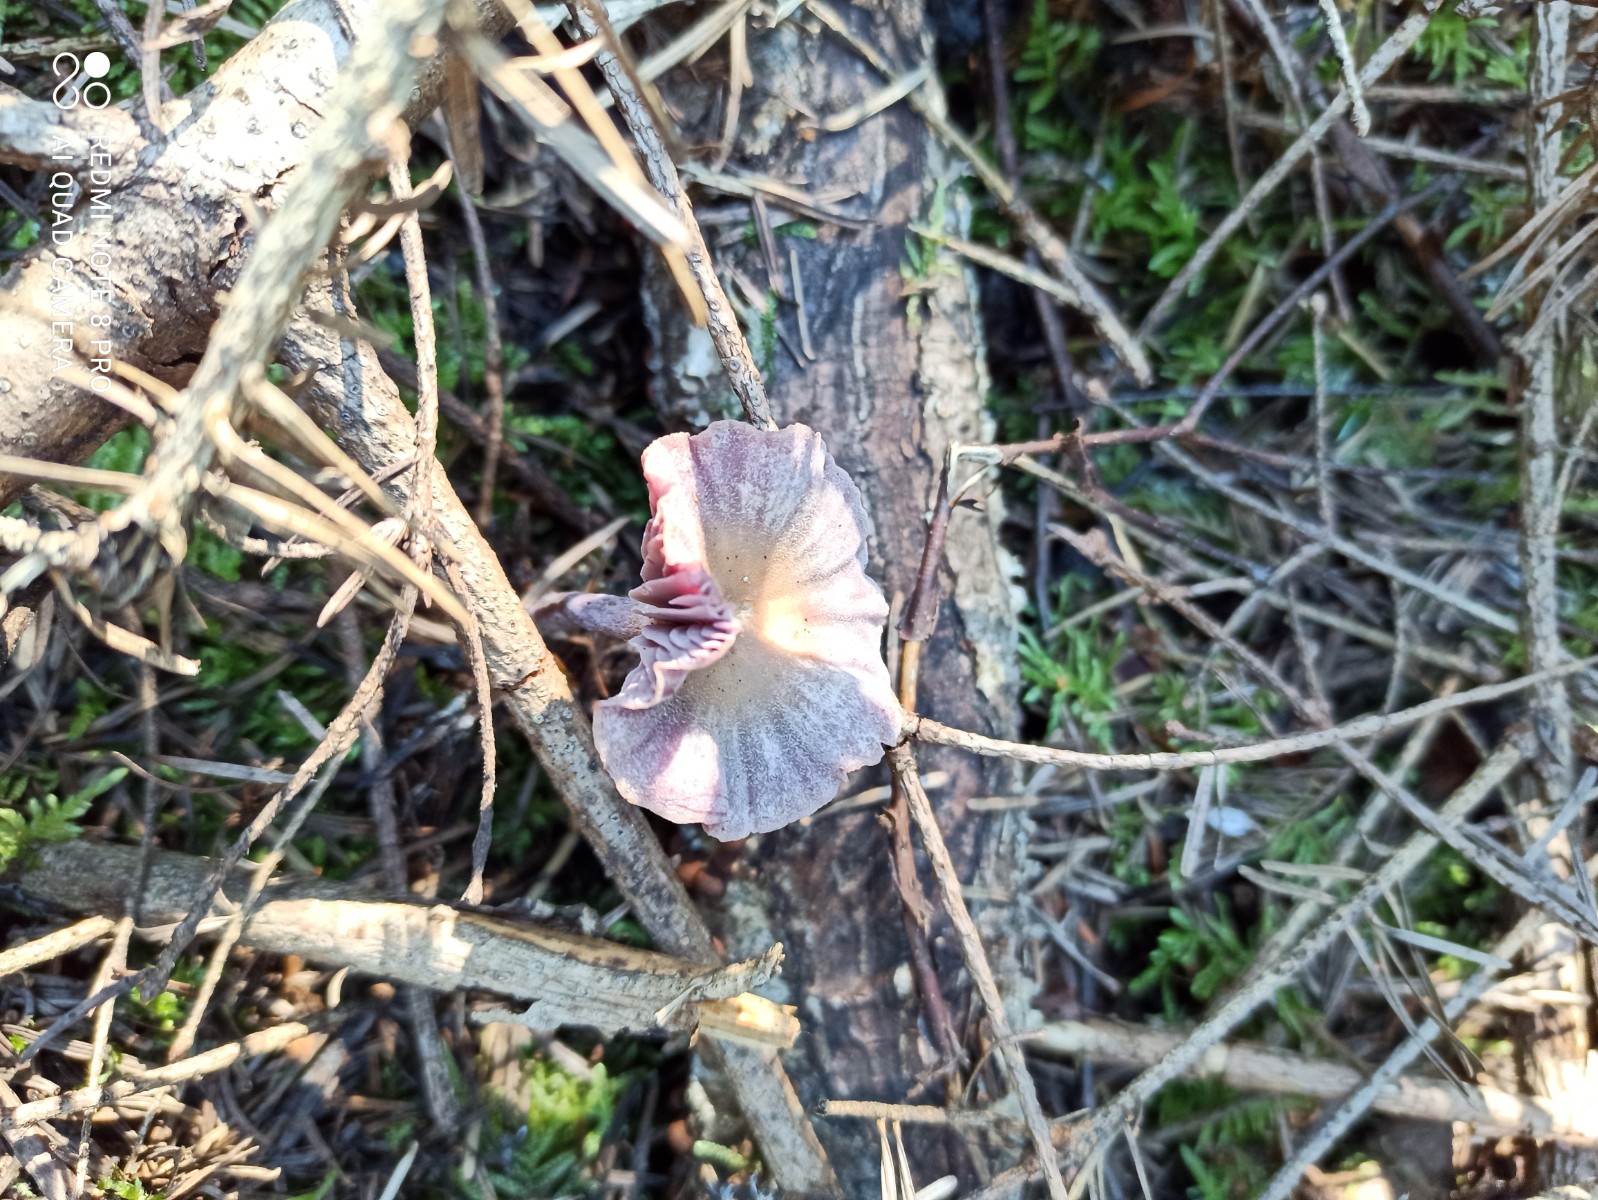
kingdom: Fungi
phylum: Basidiomycota
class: Agaricomycetes
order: Agaricales
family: Hydnangiaceae
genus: Laccaria
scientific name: Laccaria amethystina
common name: violet ametysthat
